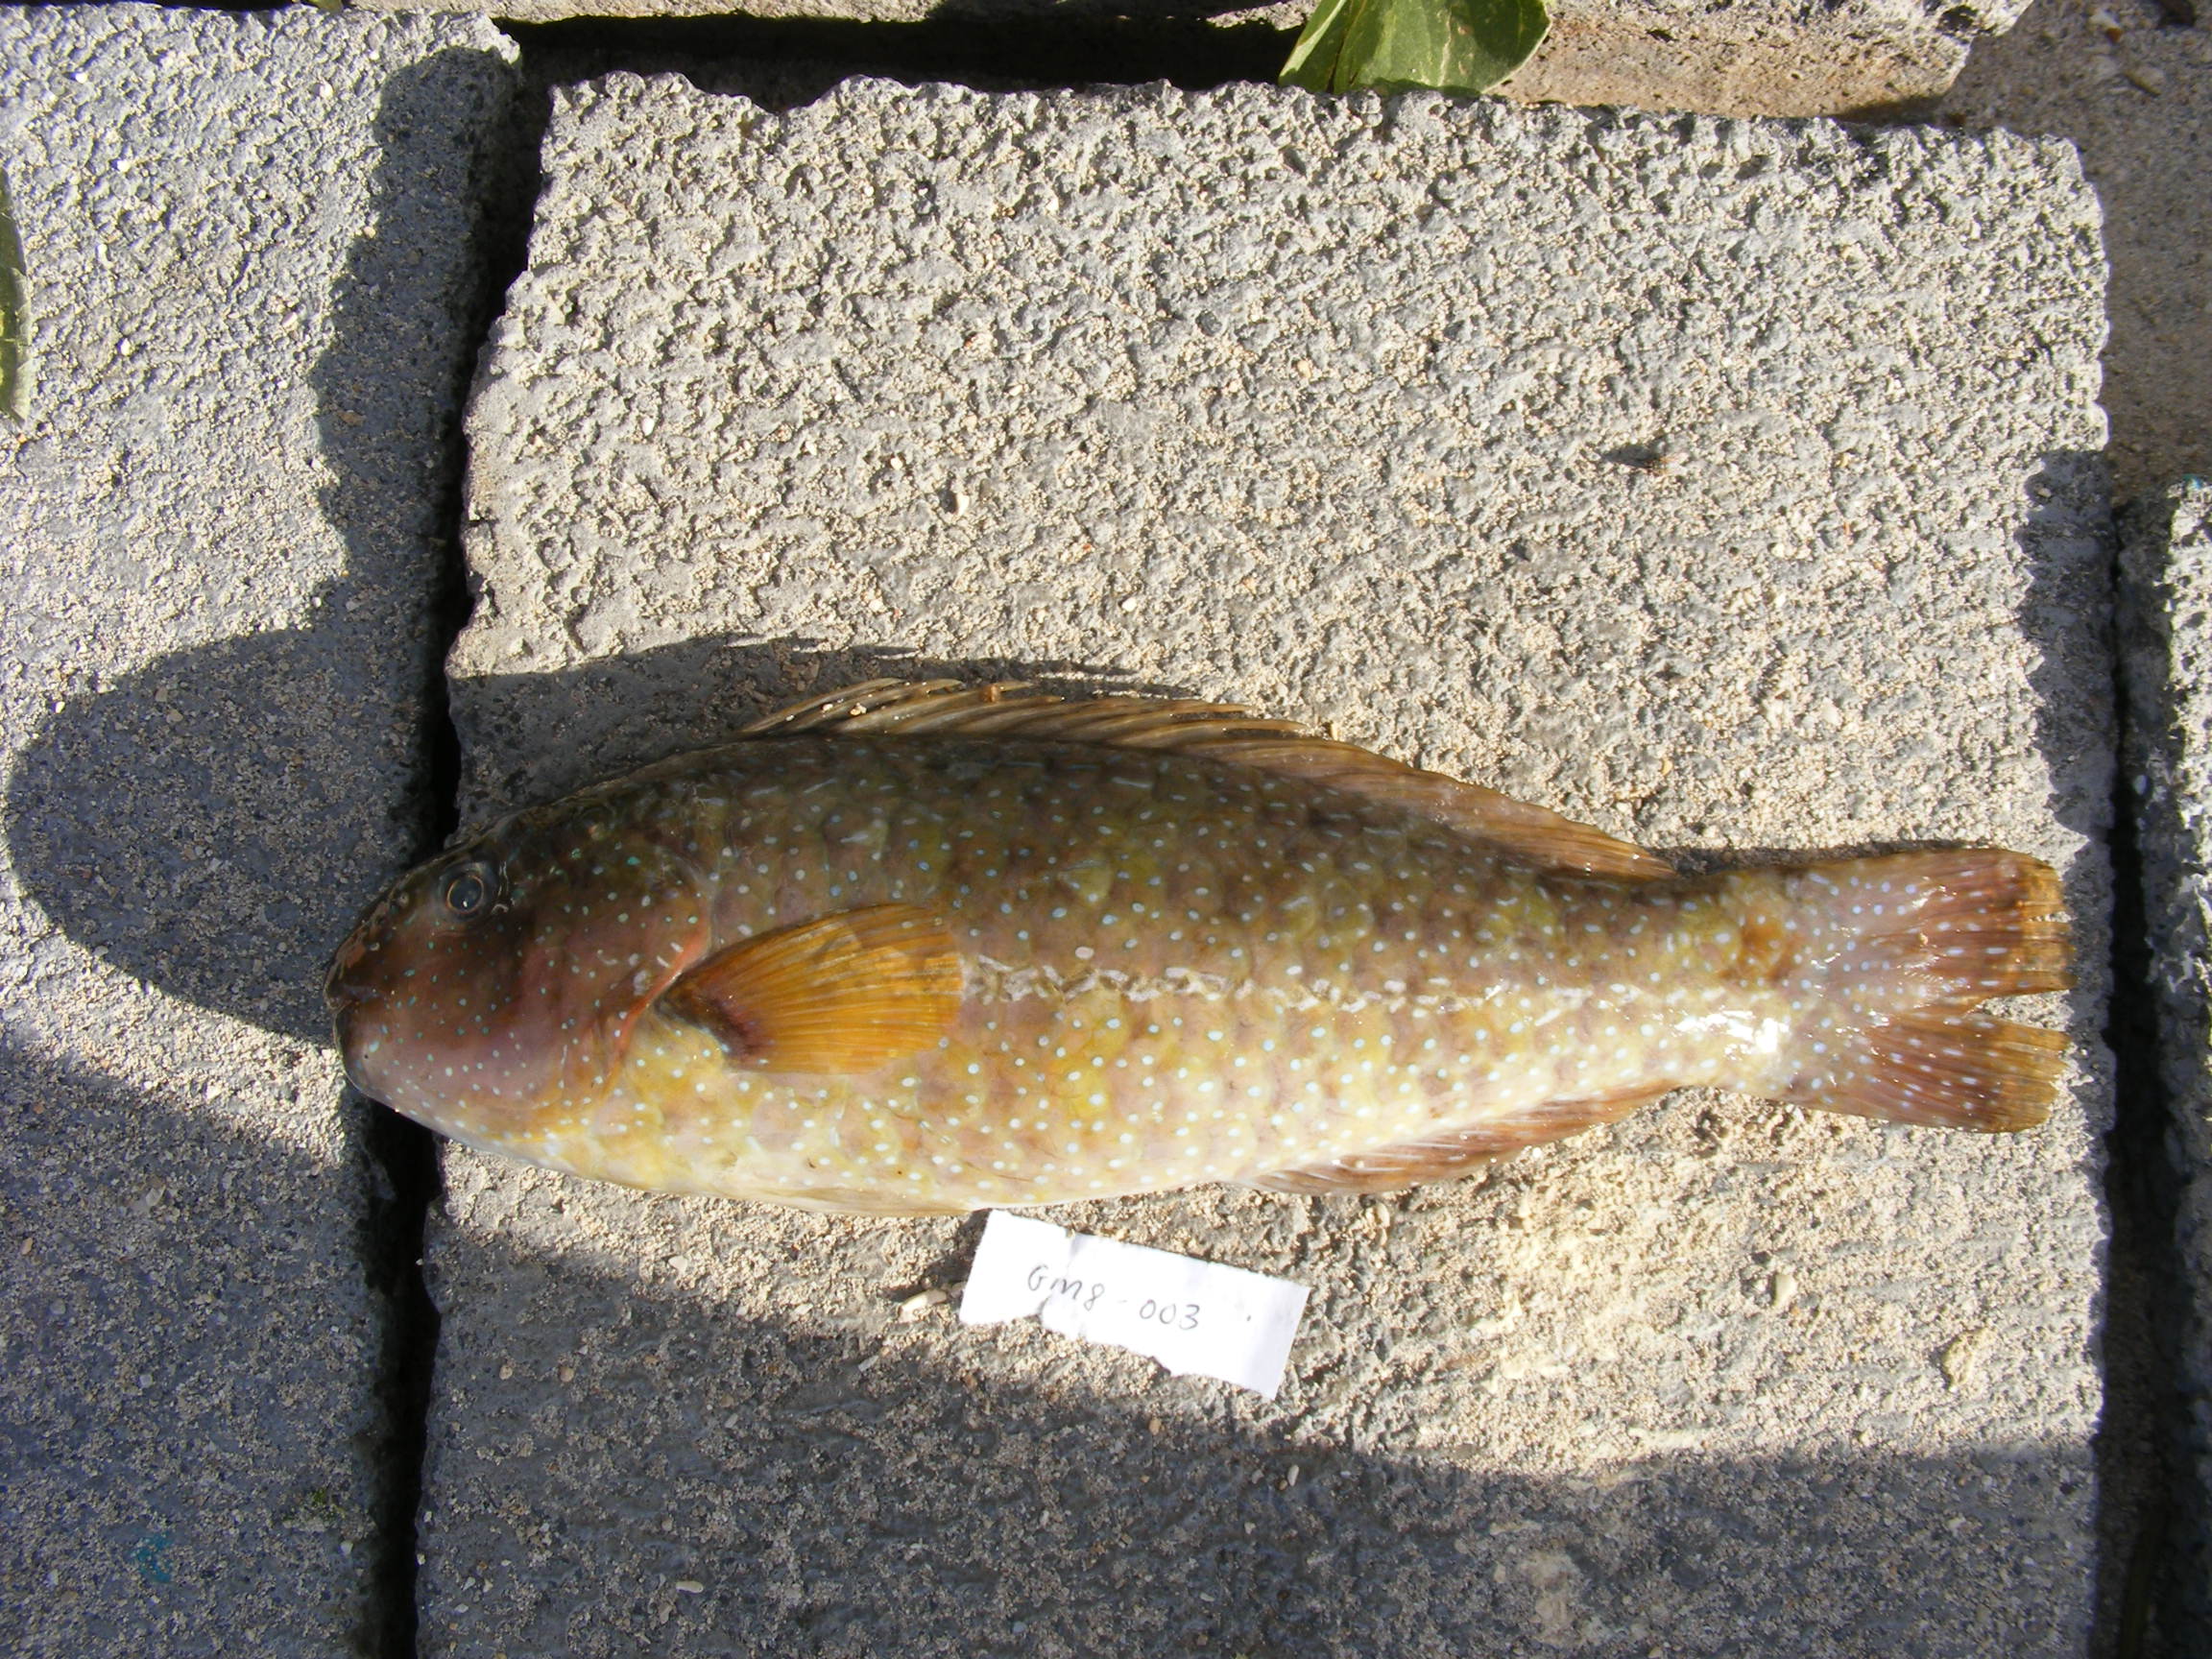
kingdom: Animalia
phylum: Chordata
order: Perciformes
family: Scaridae
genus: Leptoscarus
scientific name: Leptoscarus vaigiensis
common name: Marbled parrotfish
